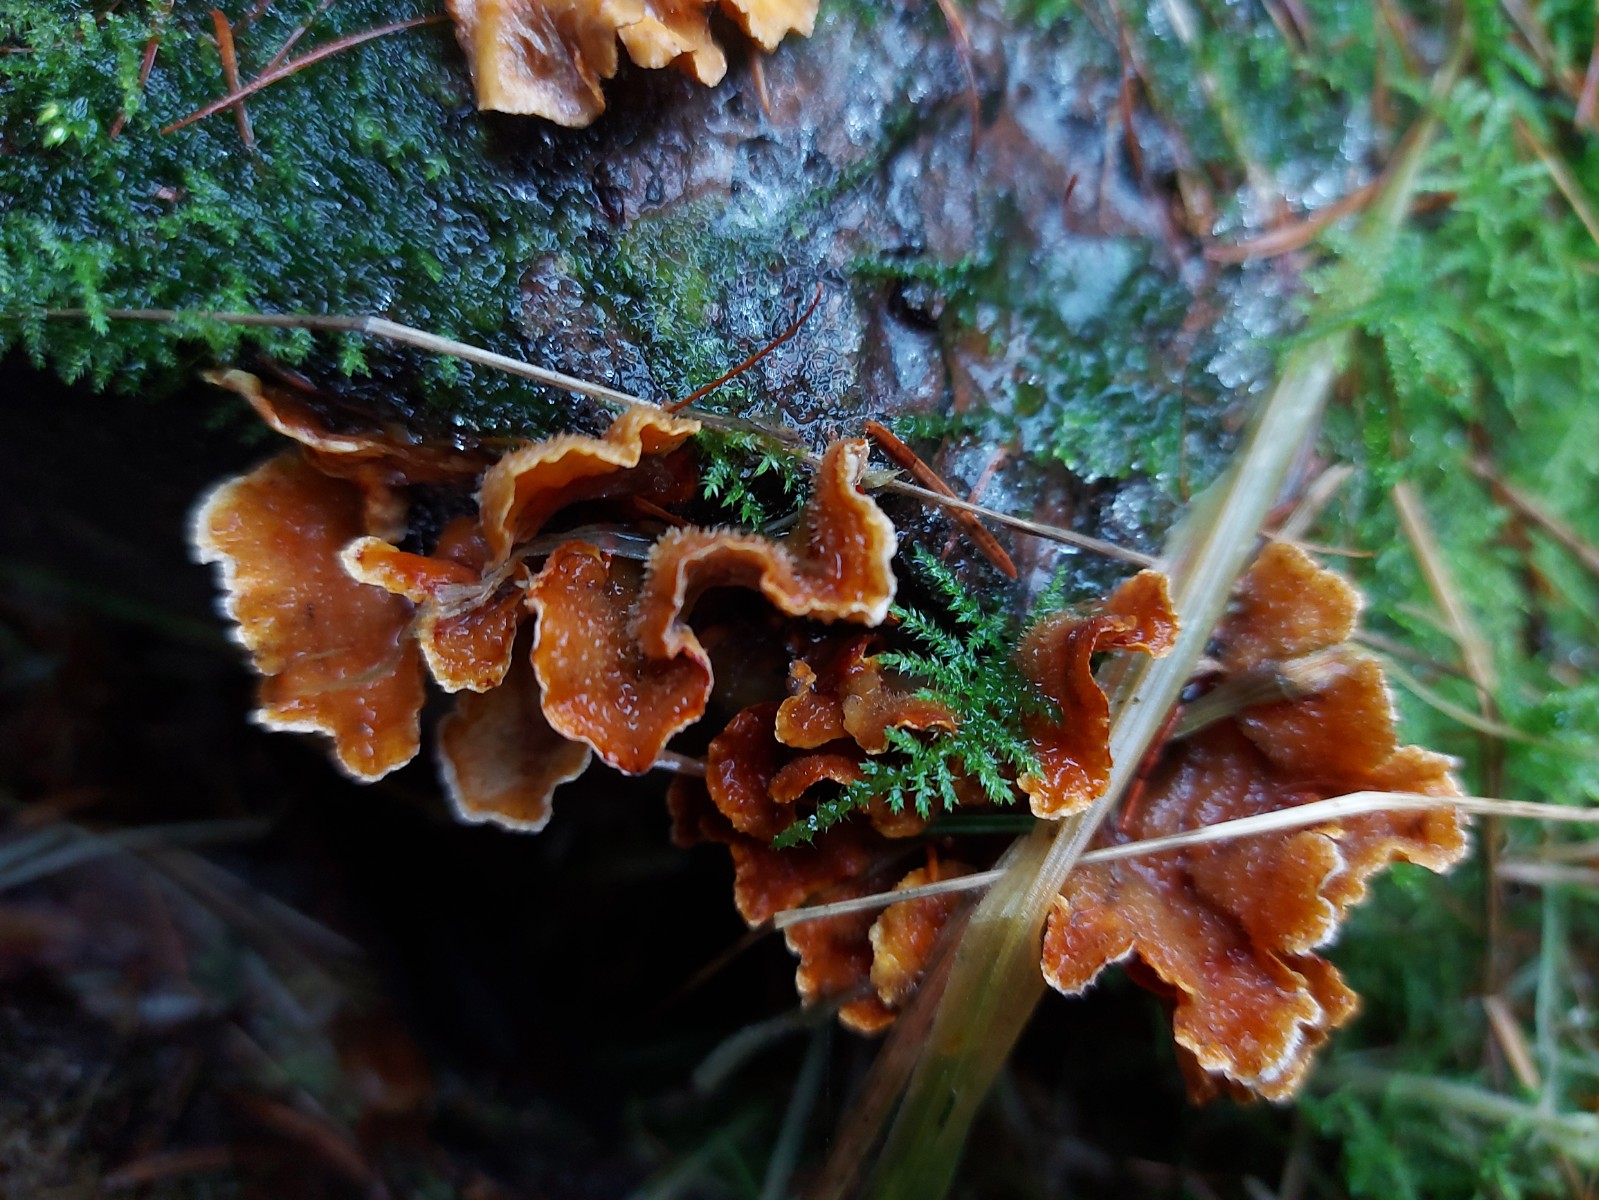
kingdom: Fungi
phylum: Basidiomycota
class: Agaricomycetes
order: Russulales
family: Stereaceae
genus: Stereum
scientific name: Stereum hirsutum
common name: håret lædersvamp
